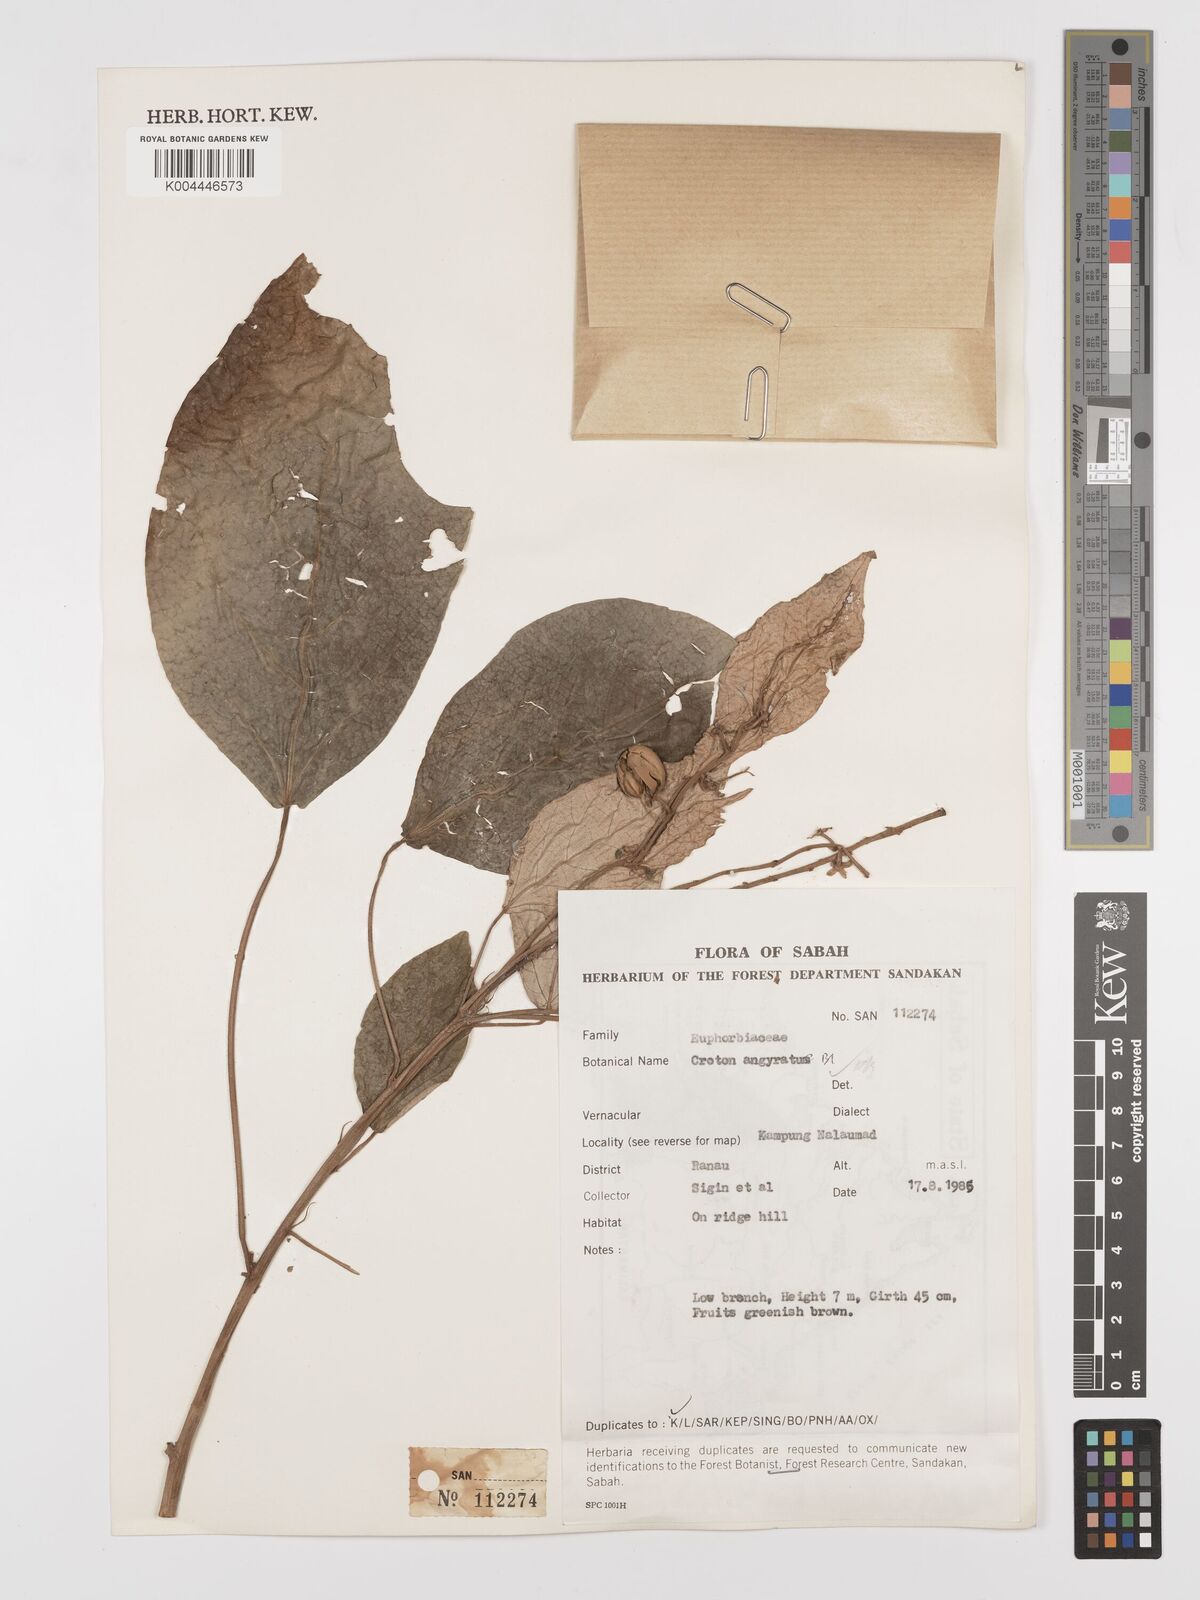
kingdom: Plantae
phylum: Tracheophyta
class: Magnoliopsida
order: Malpighiales
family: Euphorbiaceae
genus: Croton
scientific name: Croton argyratus
